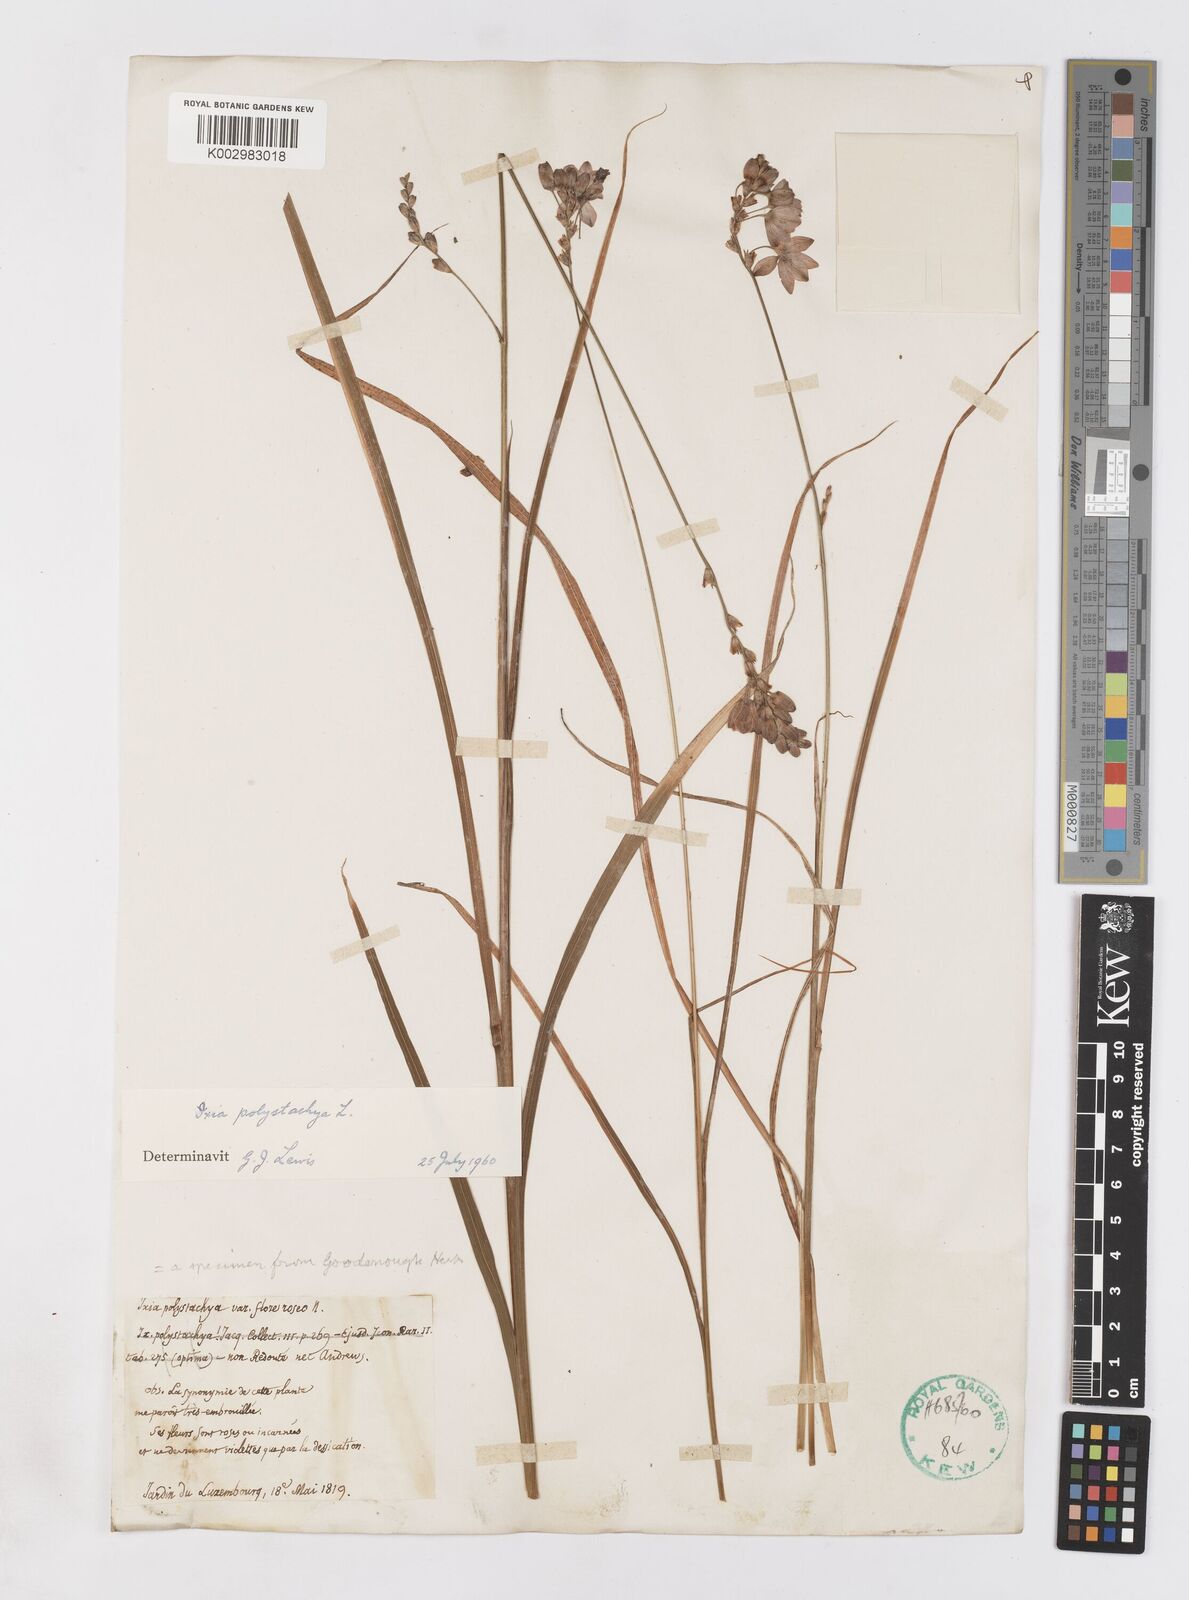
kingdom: Plantae
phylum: Tracheophyta
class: Liliopsida
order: Asparagales
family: Iridaceae
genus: Ixia
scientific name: Ixia polystachya
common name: White-and-yellow-flower cornlily
